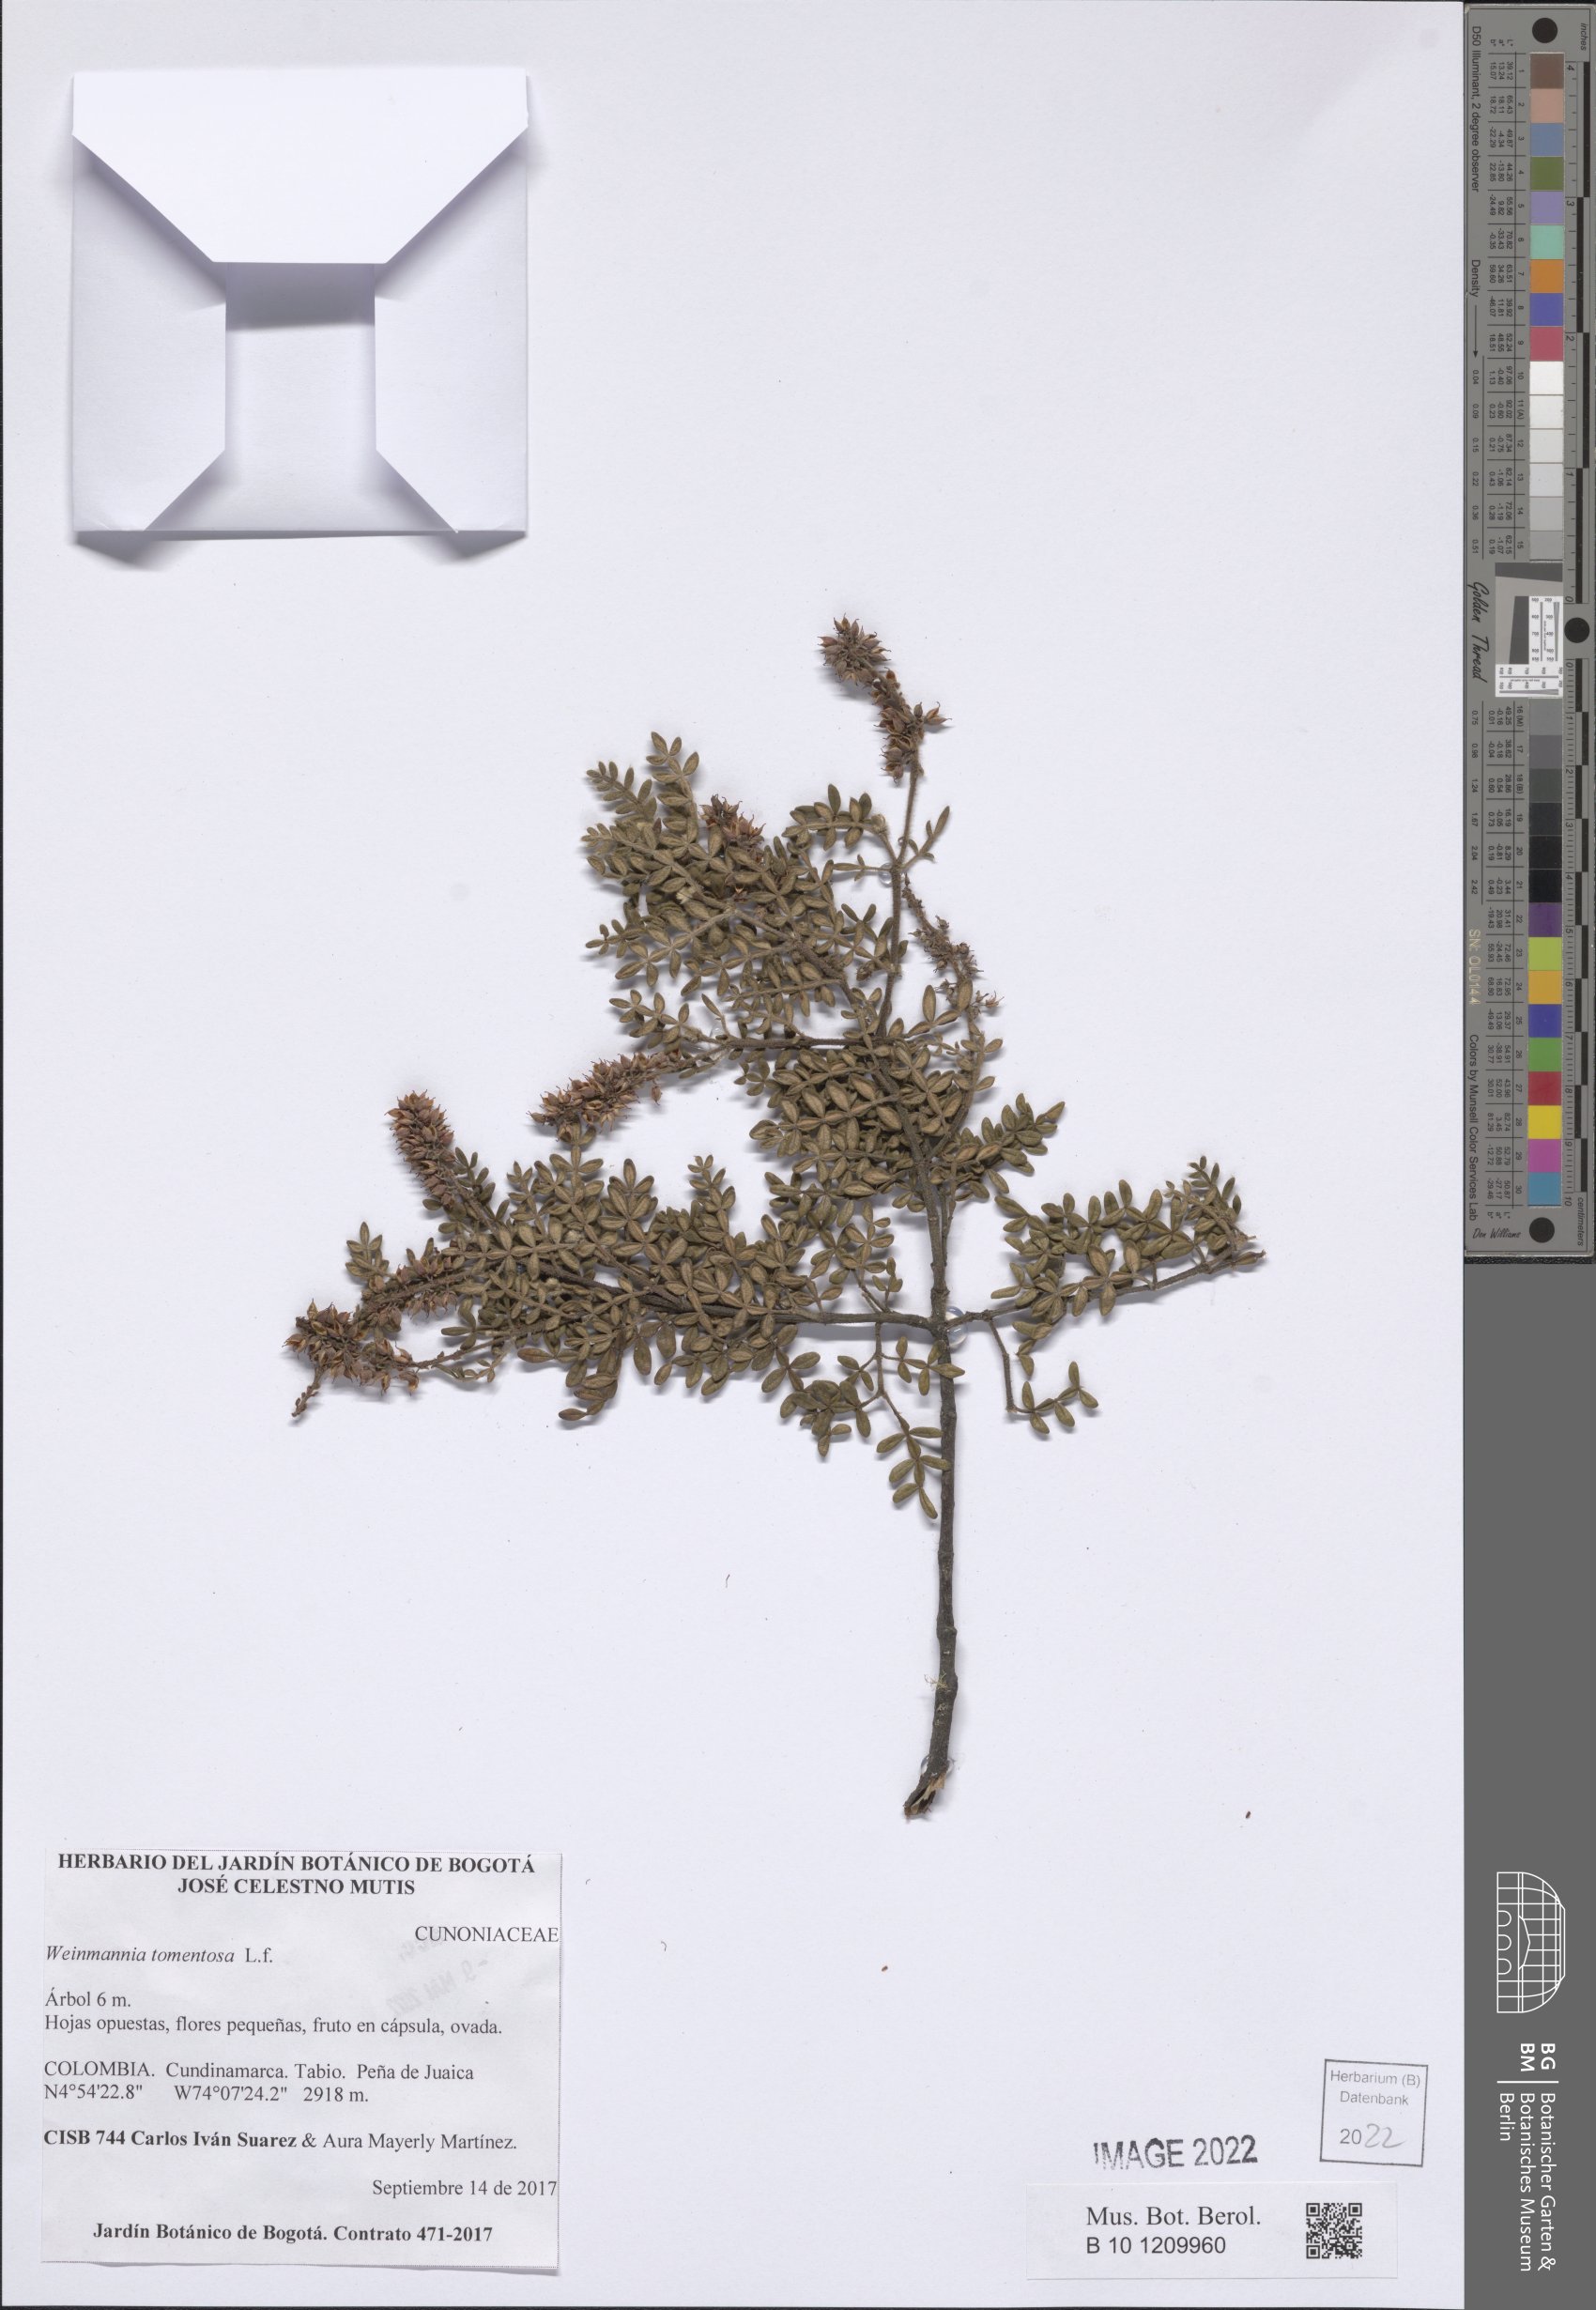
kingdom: Plantae
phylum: Tracheophyta
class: Magnoliopsida
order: Oxalidales
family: Cunoniaceae
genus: Weinmannia
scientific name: Weinmannia tomentosa
